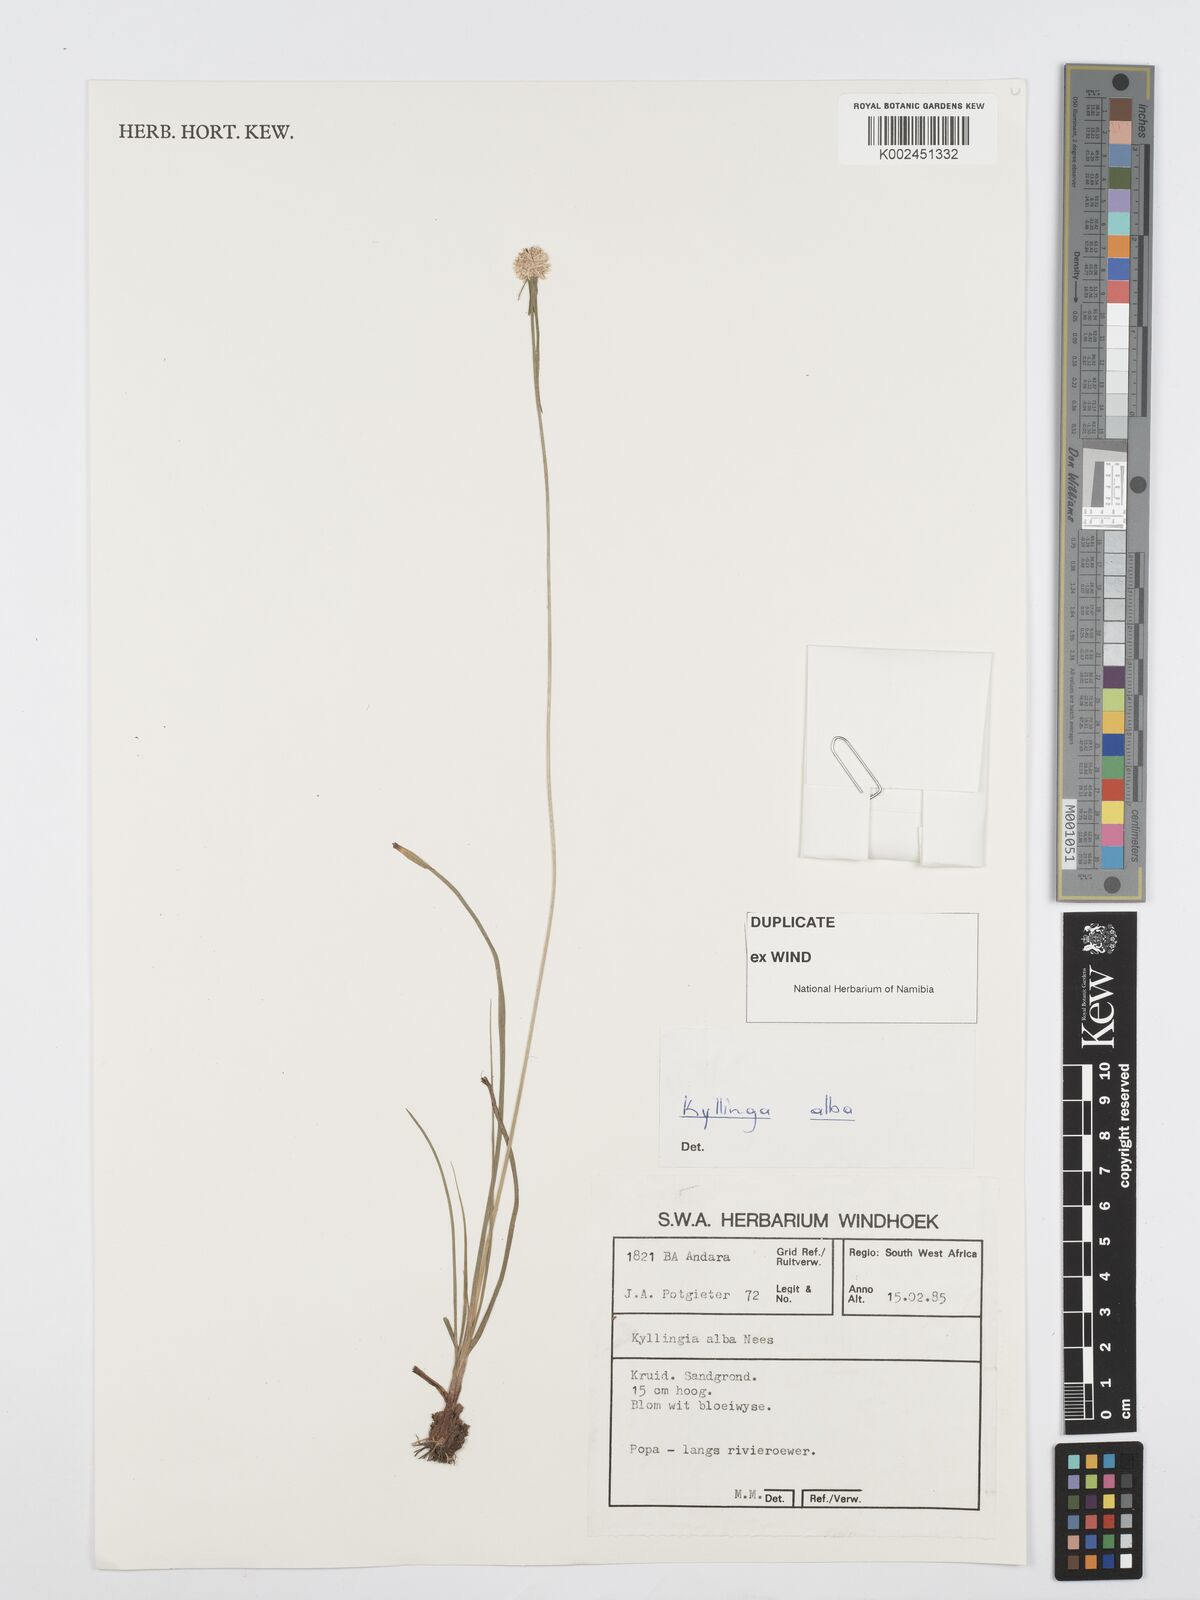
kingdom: Plantae
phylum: Tracheophyta
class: Liliopsida
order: Poales
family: Cyperaceae
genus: Cyperus
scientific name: Cyperus
